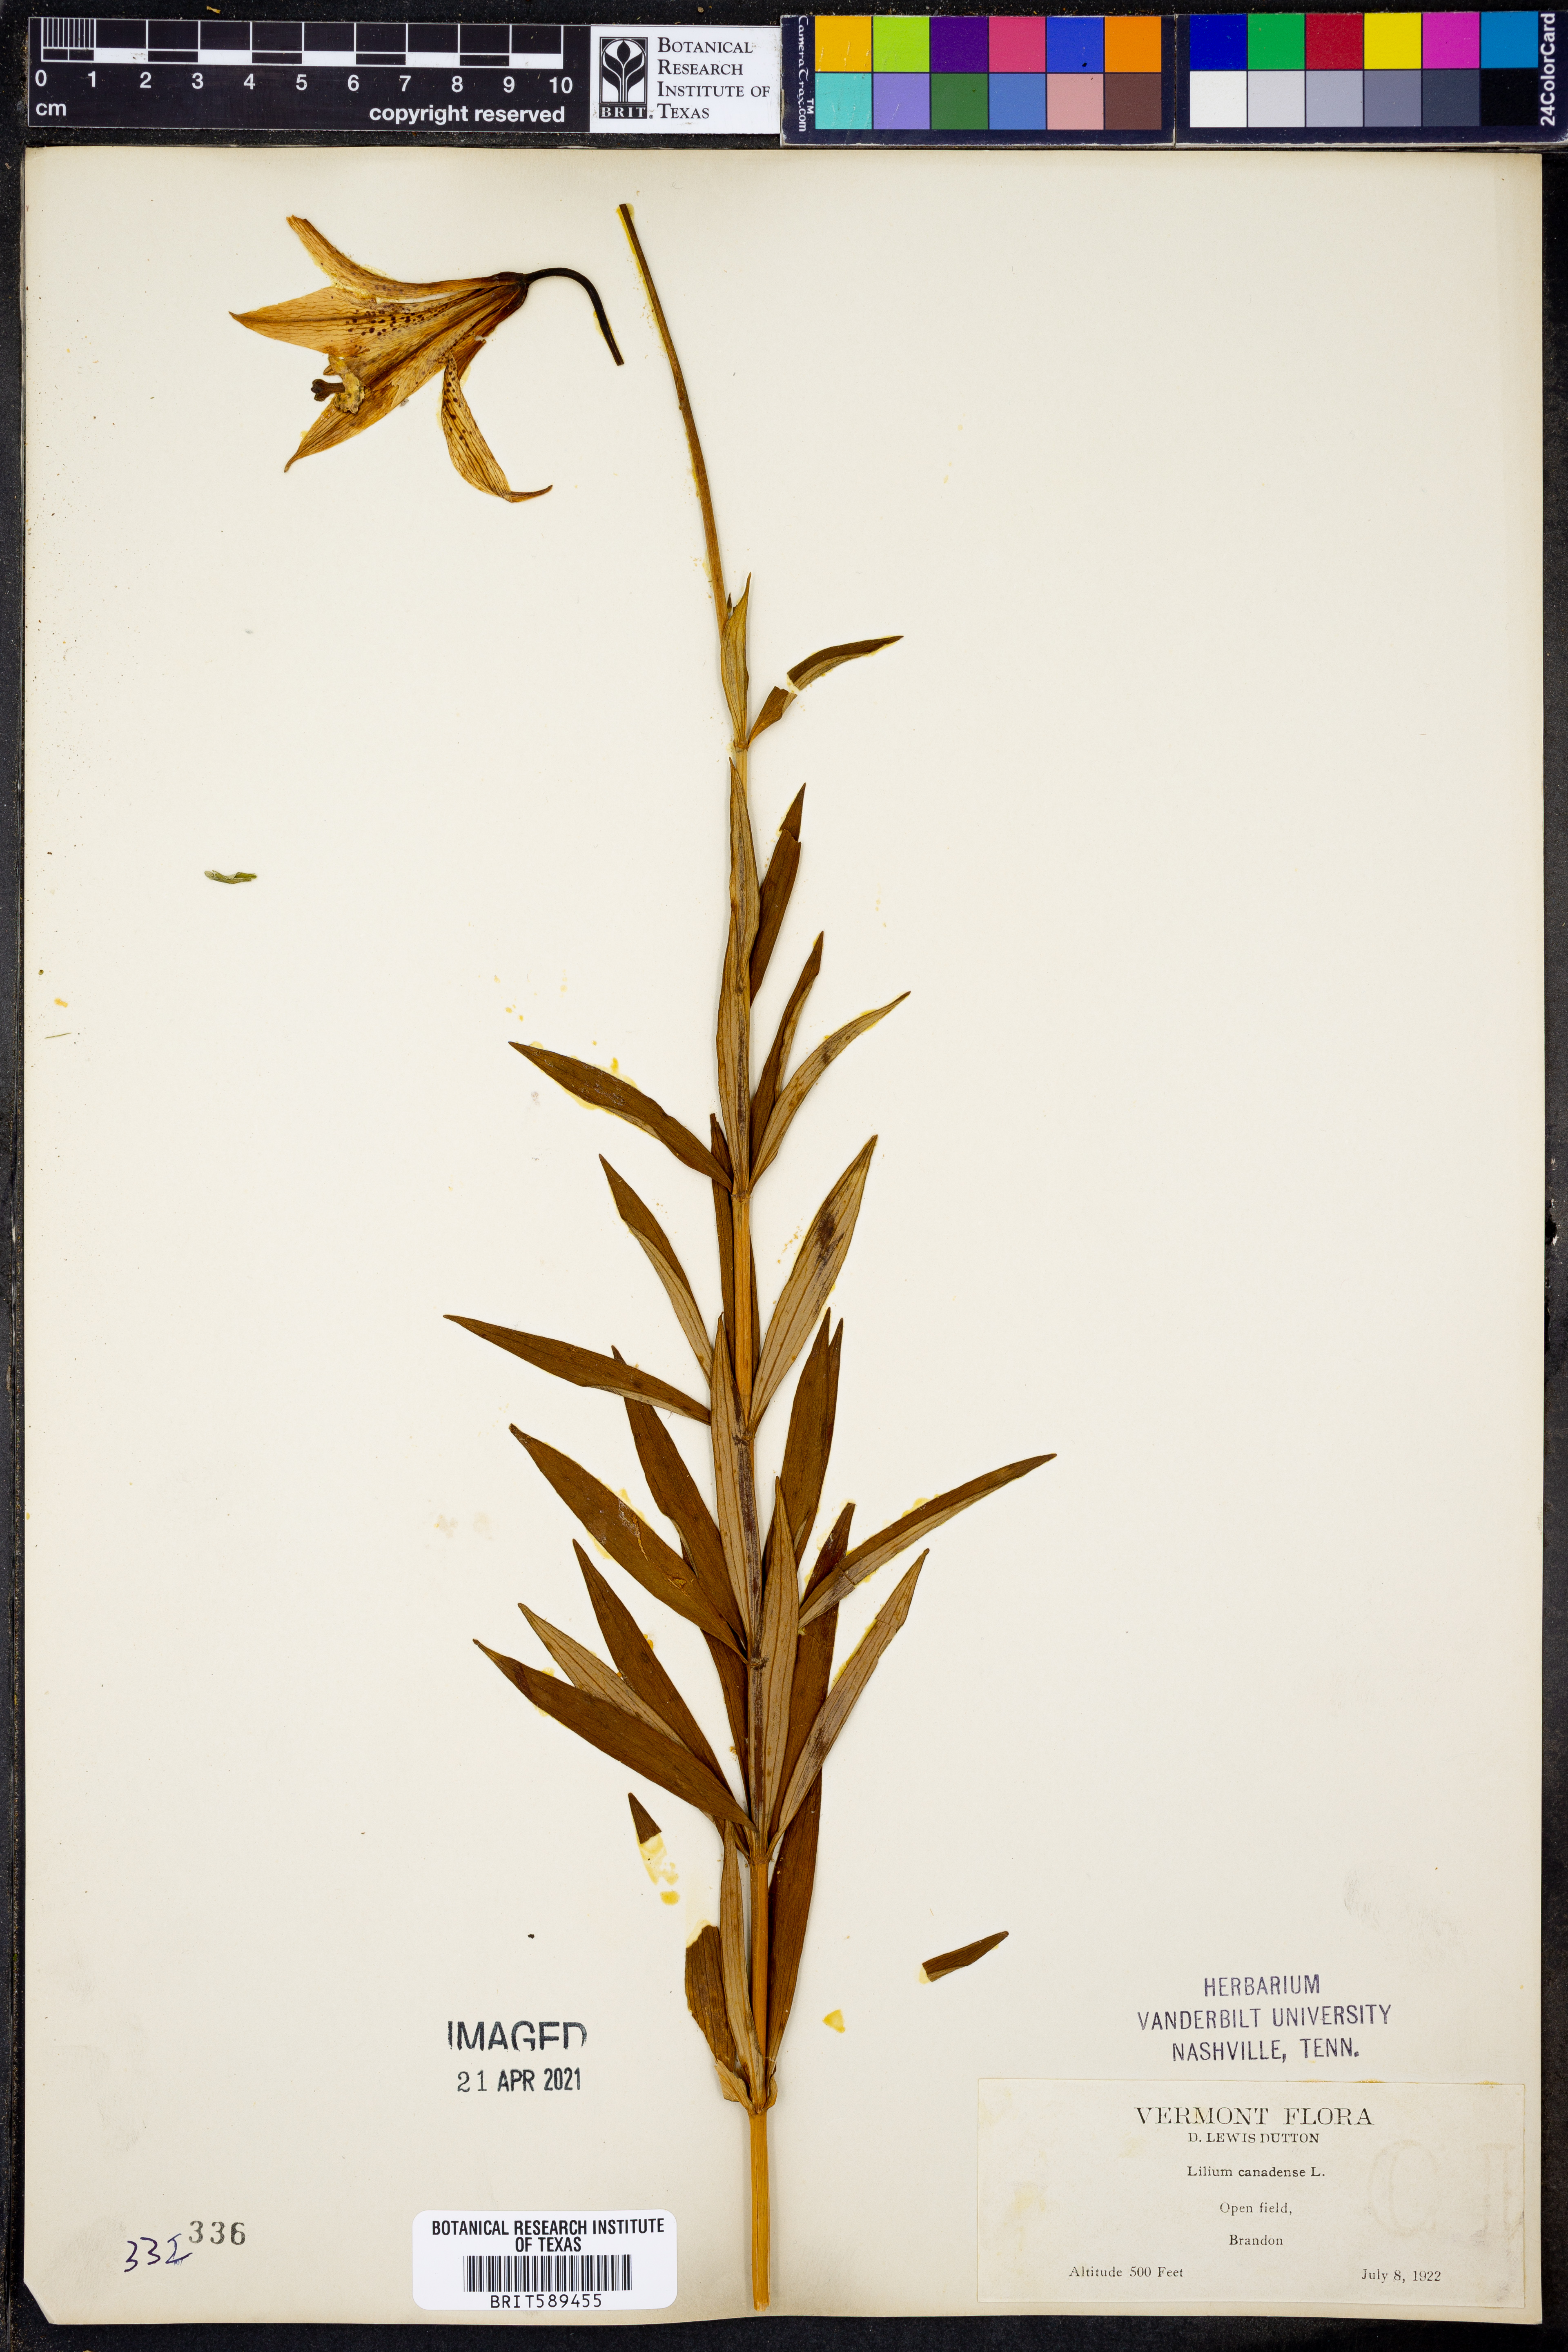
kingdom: Plantae
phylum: Tracheophyta
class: Liliopsida
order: Liliales
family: Liliaceae
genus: Lilium
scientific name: Lilium canadense
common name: Canada lily
